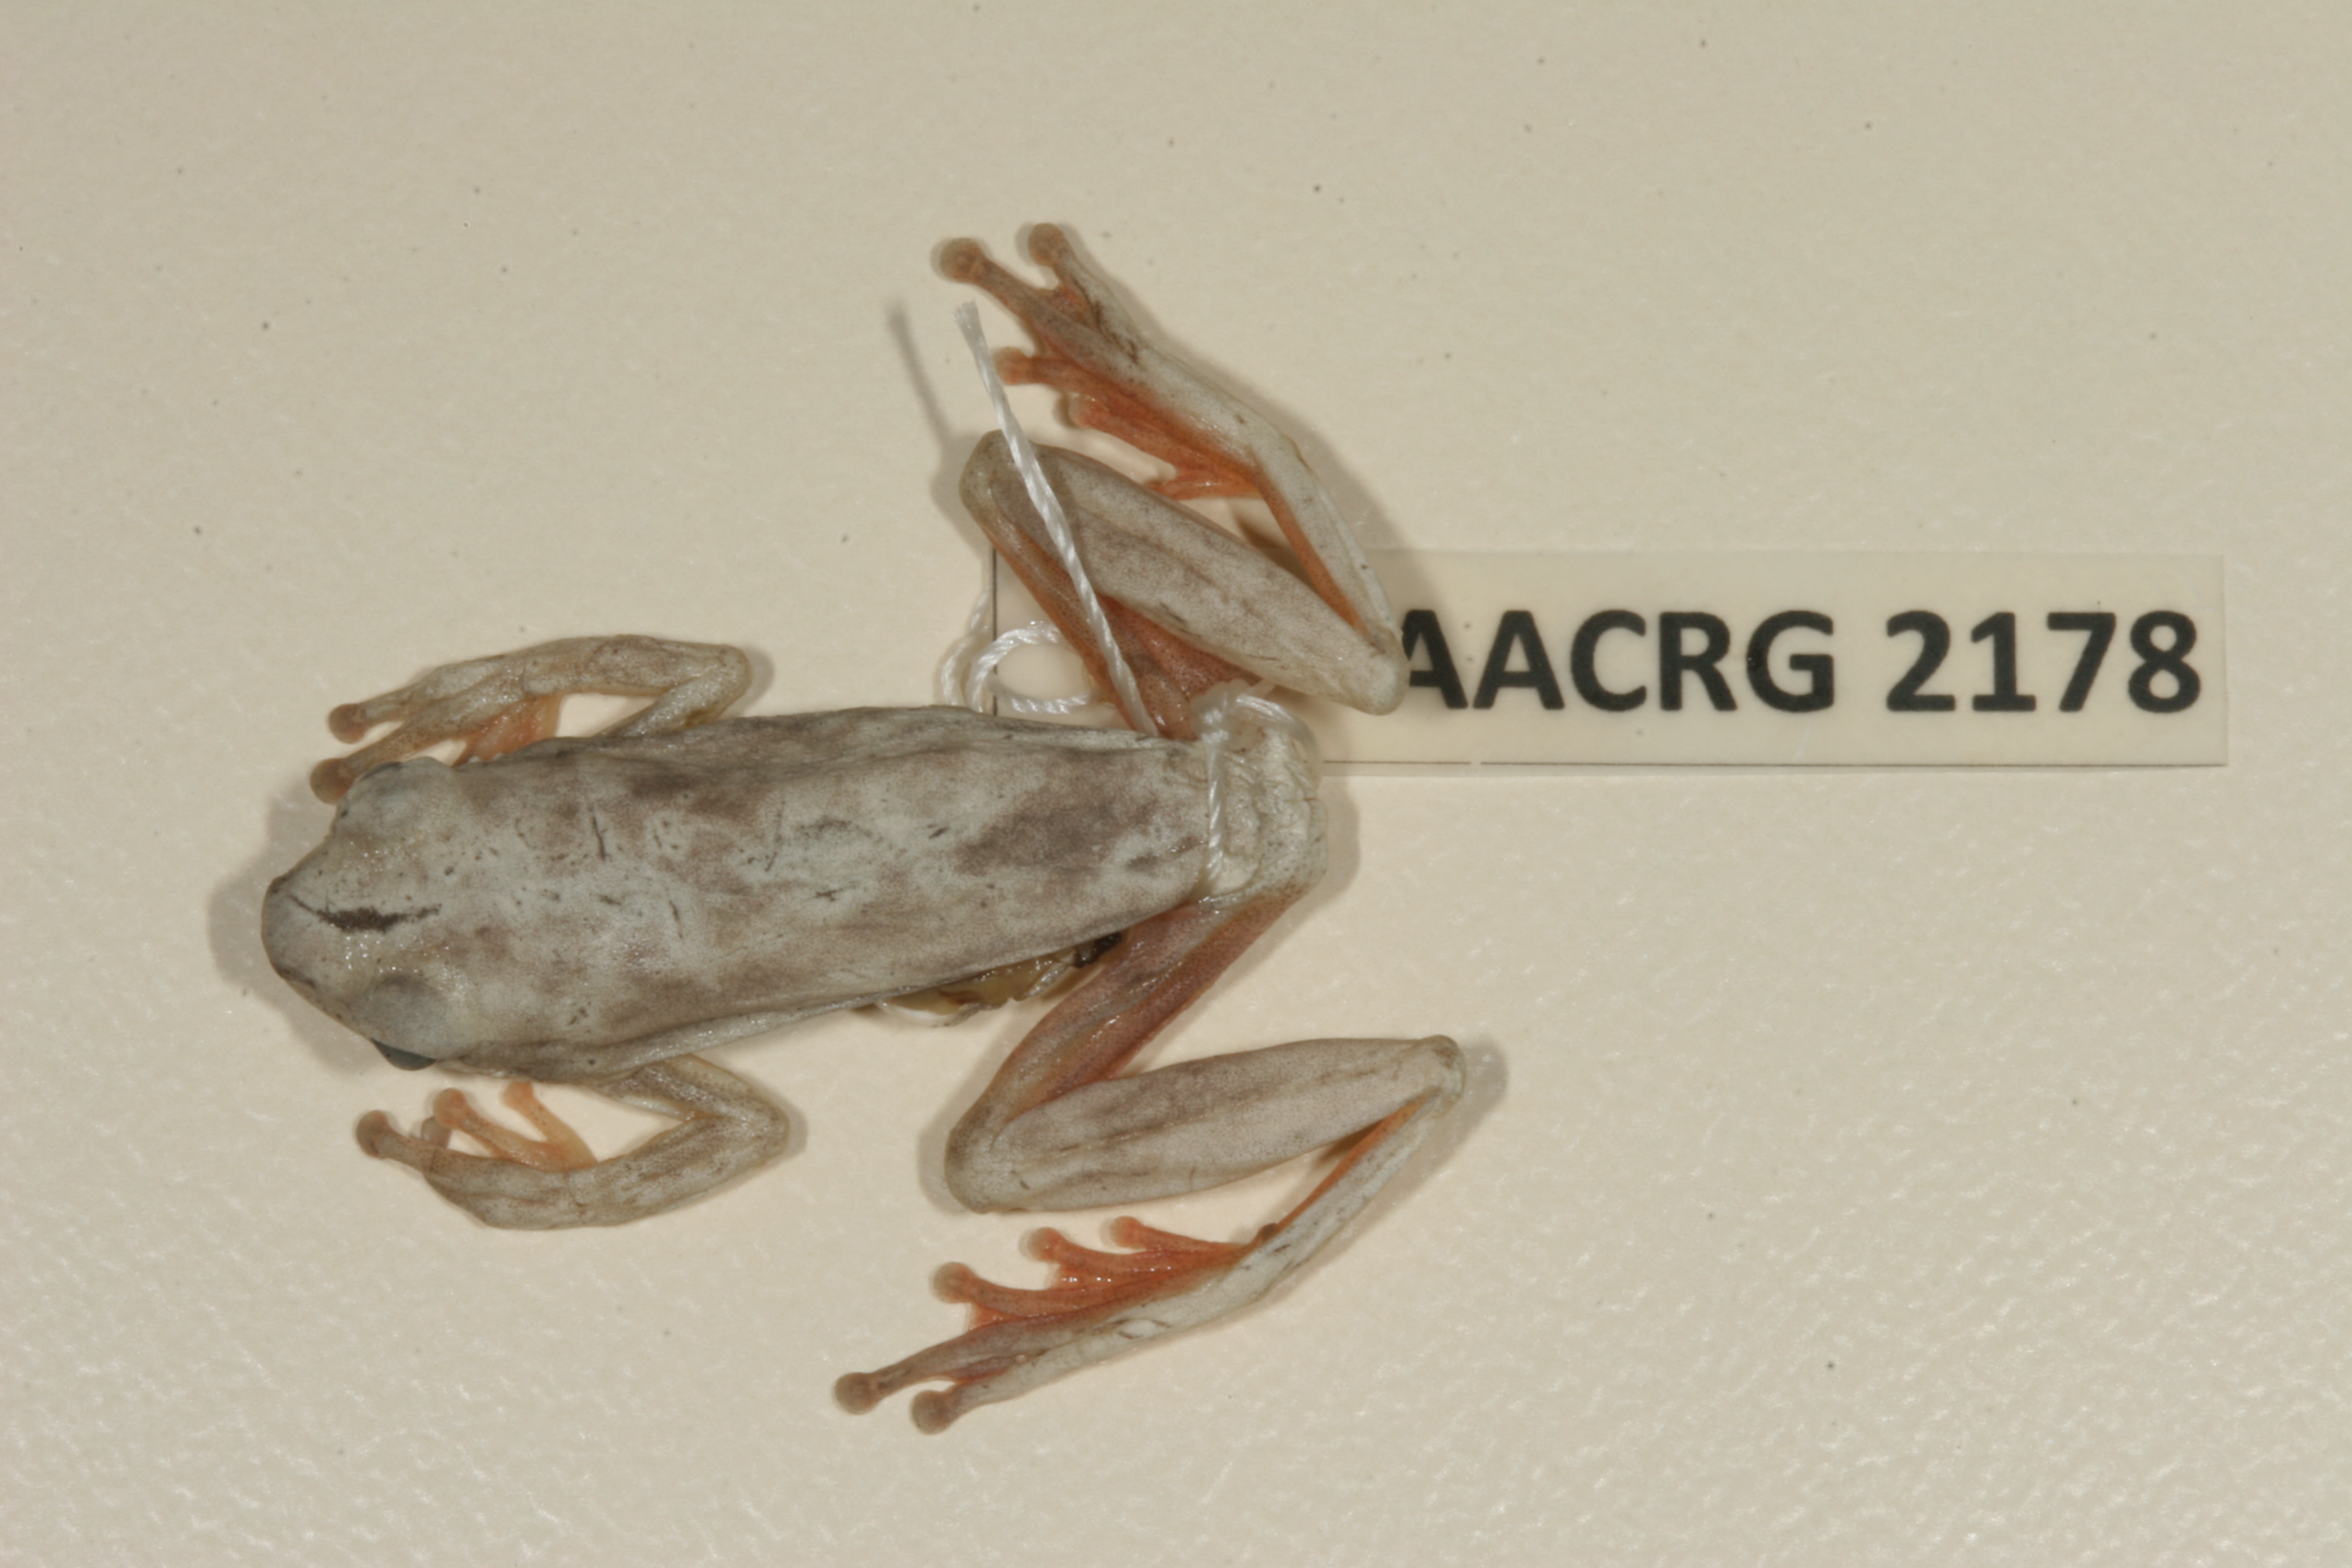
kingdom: Animalia
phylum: Chordata
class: Amphibia
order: Anura
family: Hyperoliidae
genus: Hyperolius
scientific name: Hyperolius marmoratus
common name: Painted reed frog
